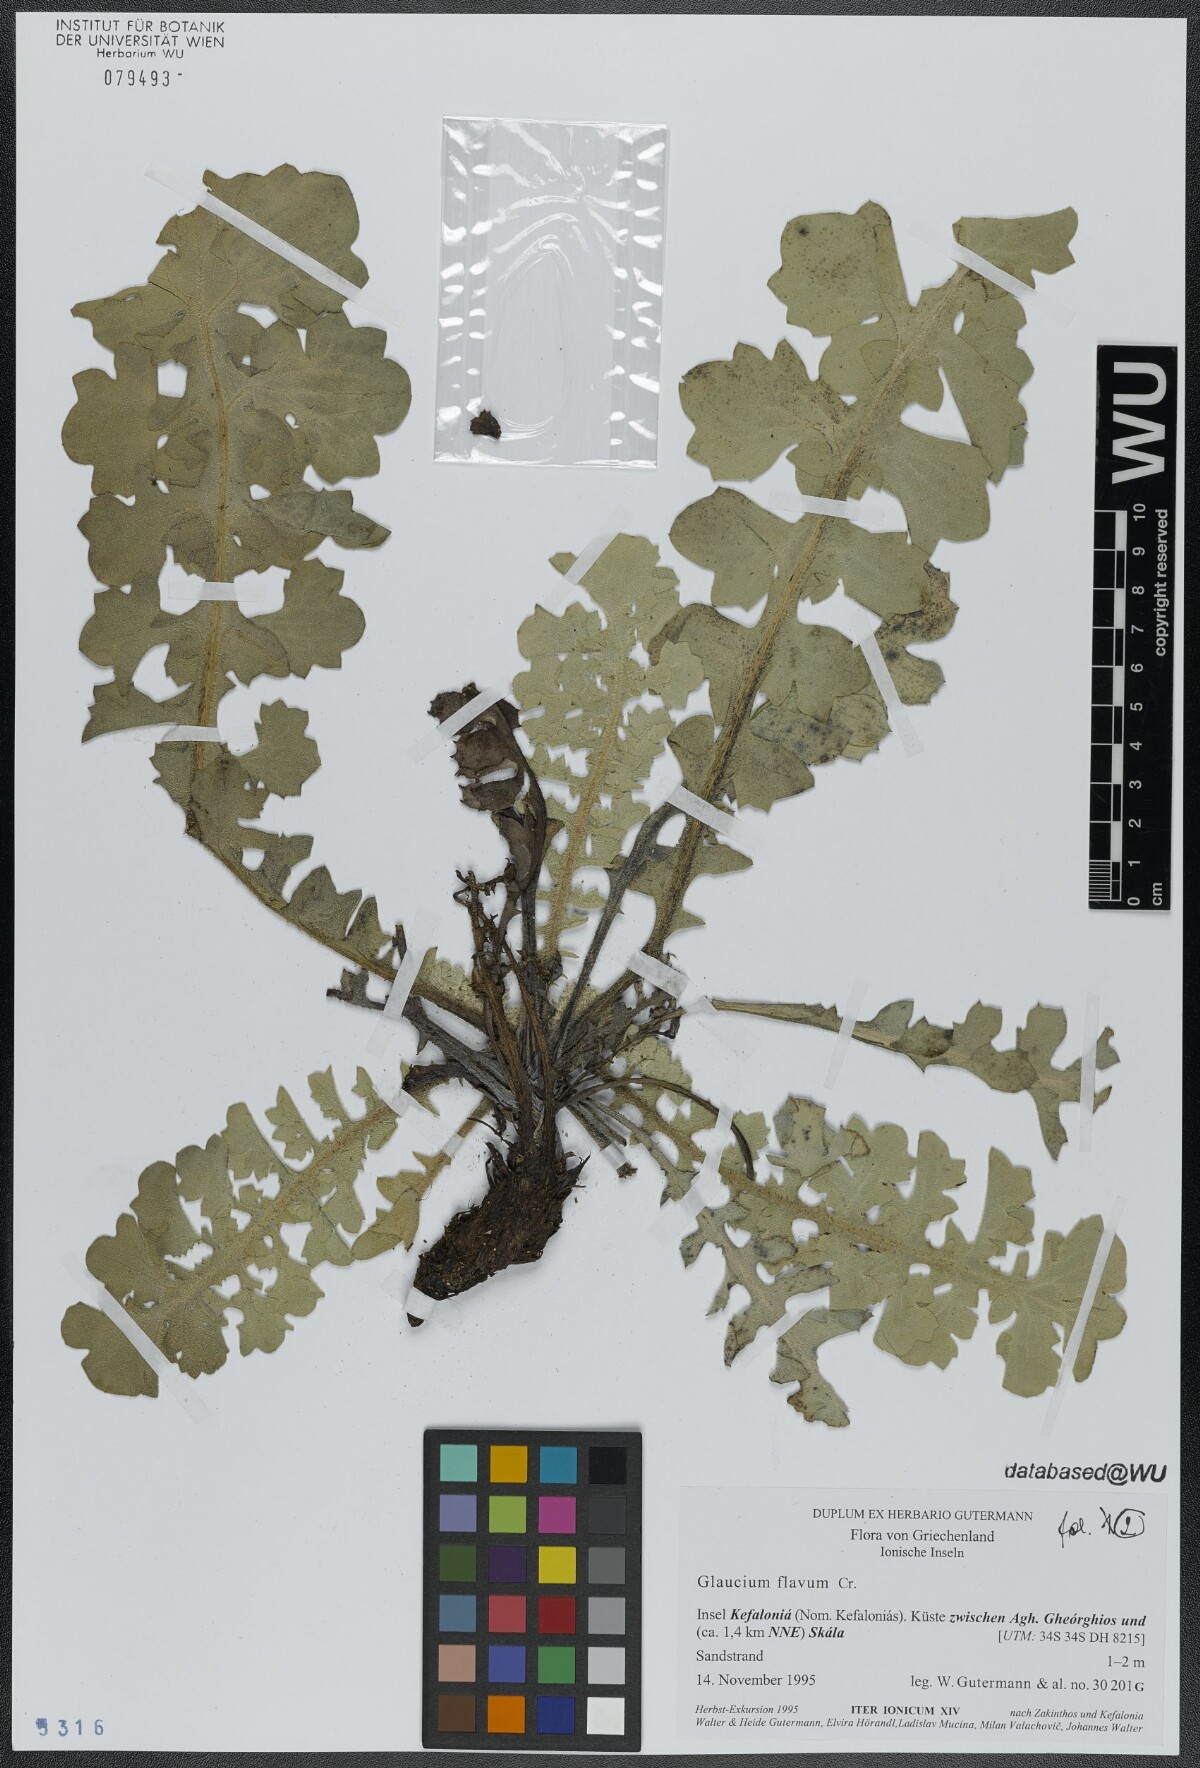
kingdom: Plantae
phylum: Tracheophyta
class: Magnoliopsida
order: Ranunculales
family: Papaveraceae
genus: Glaucium
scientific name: Glaucium flavum
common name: Yellow horned-poppy
